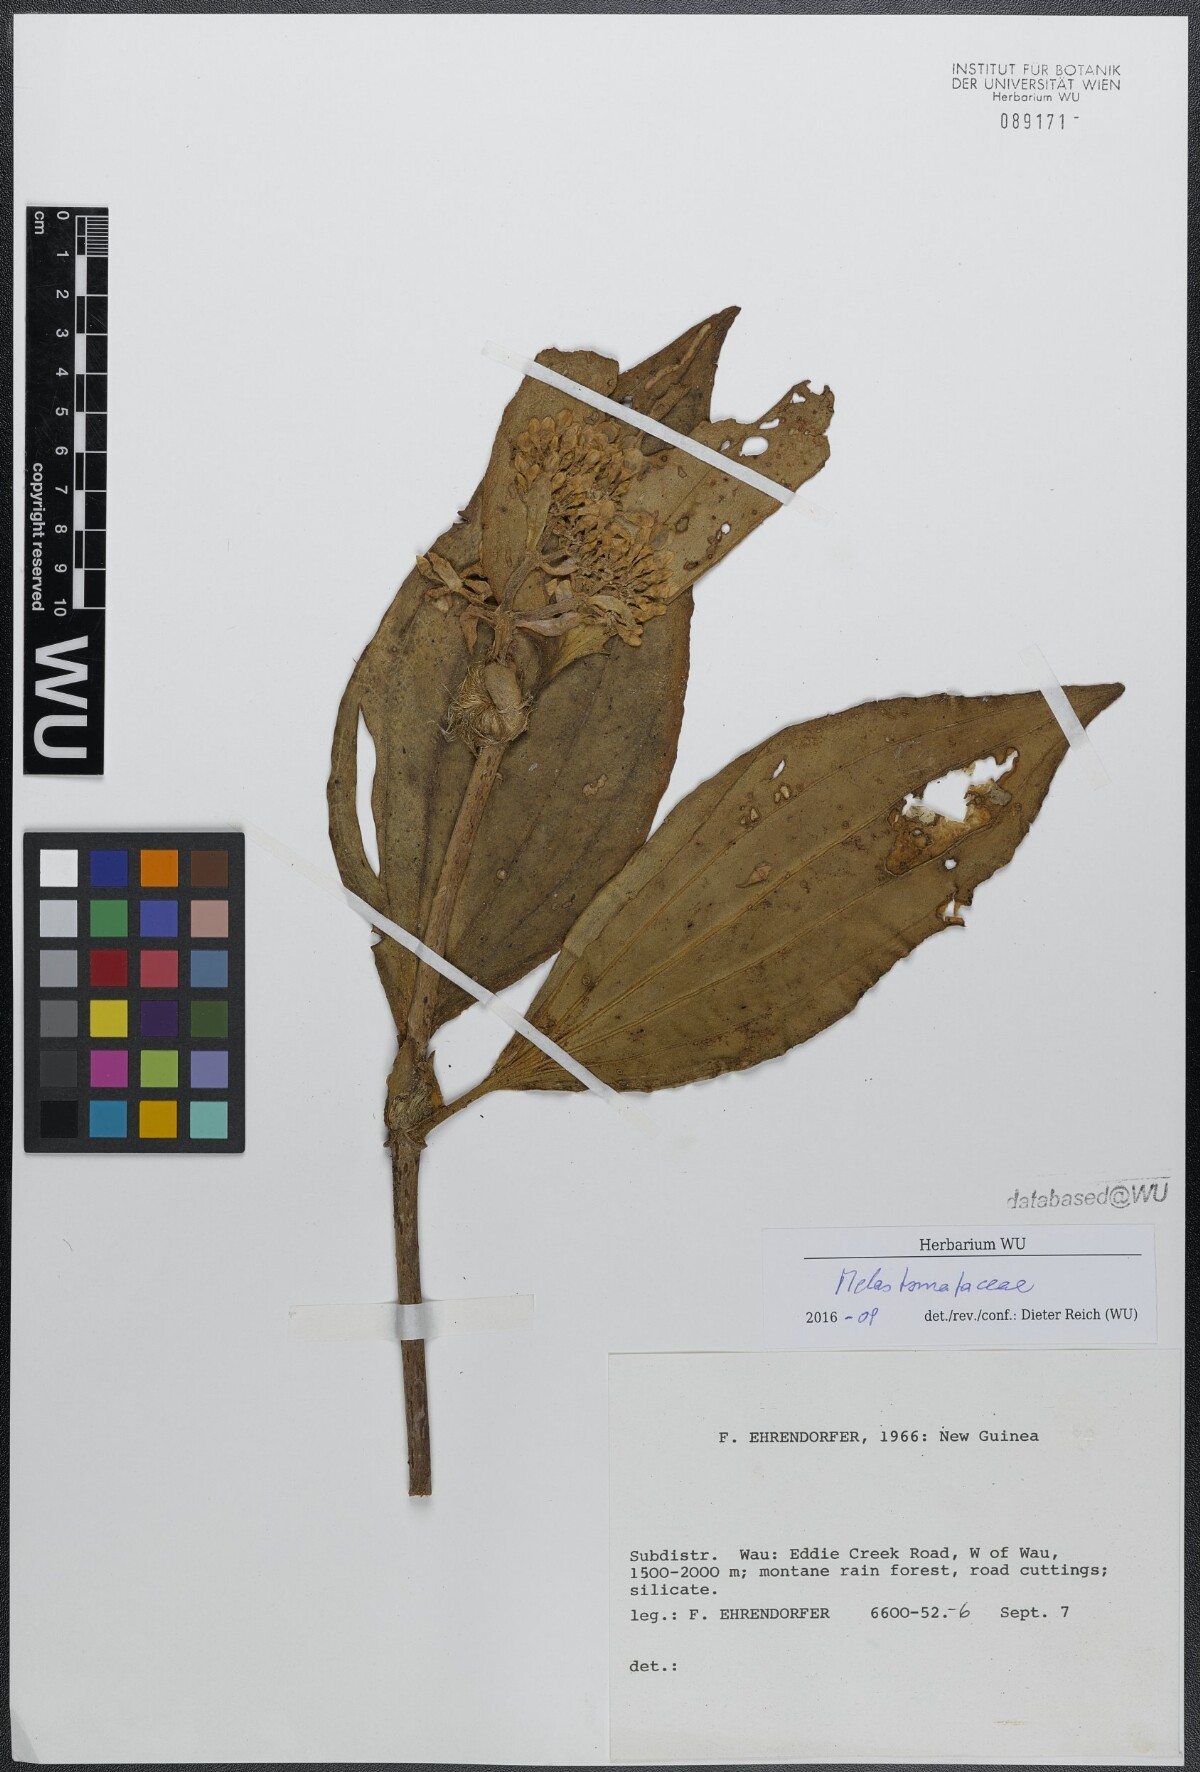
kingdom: Plantae
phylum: Tracheophyta
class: Magnoliopsida
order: Myrtales
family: Melastomataceae
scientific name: Melastomataceae
